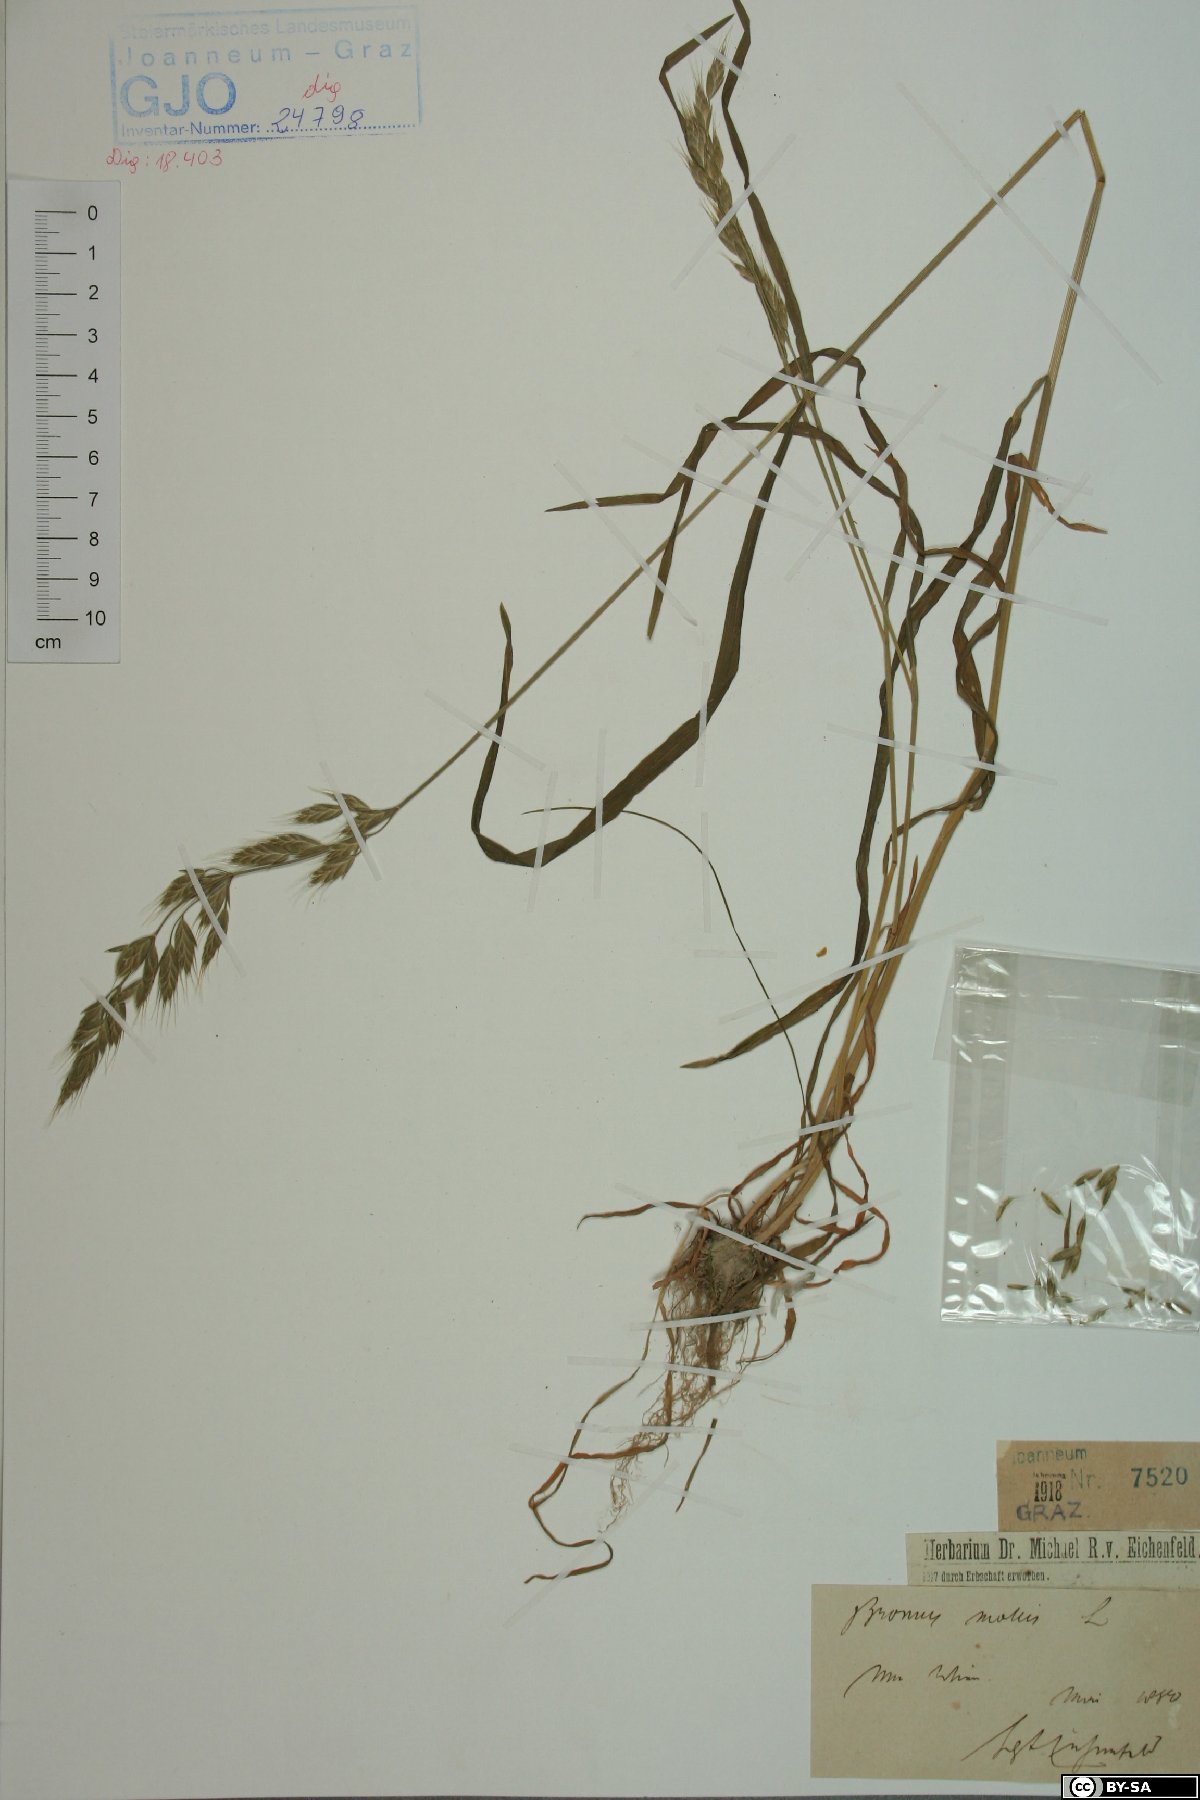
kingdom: Plantae
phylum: Tracheophyta
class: Liliopsida
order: Poales
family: Poaceae
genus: Bromus
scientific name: Bromus hordeaceus
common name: Soft brome
